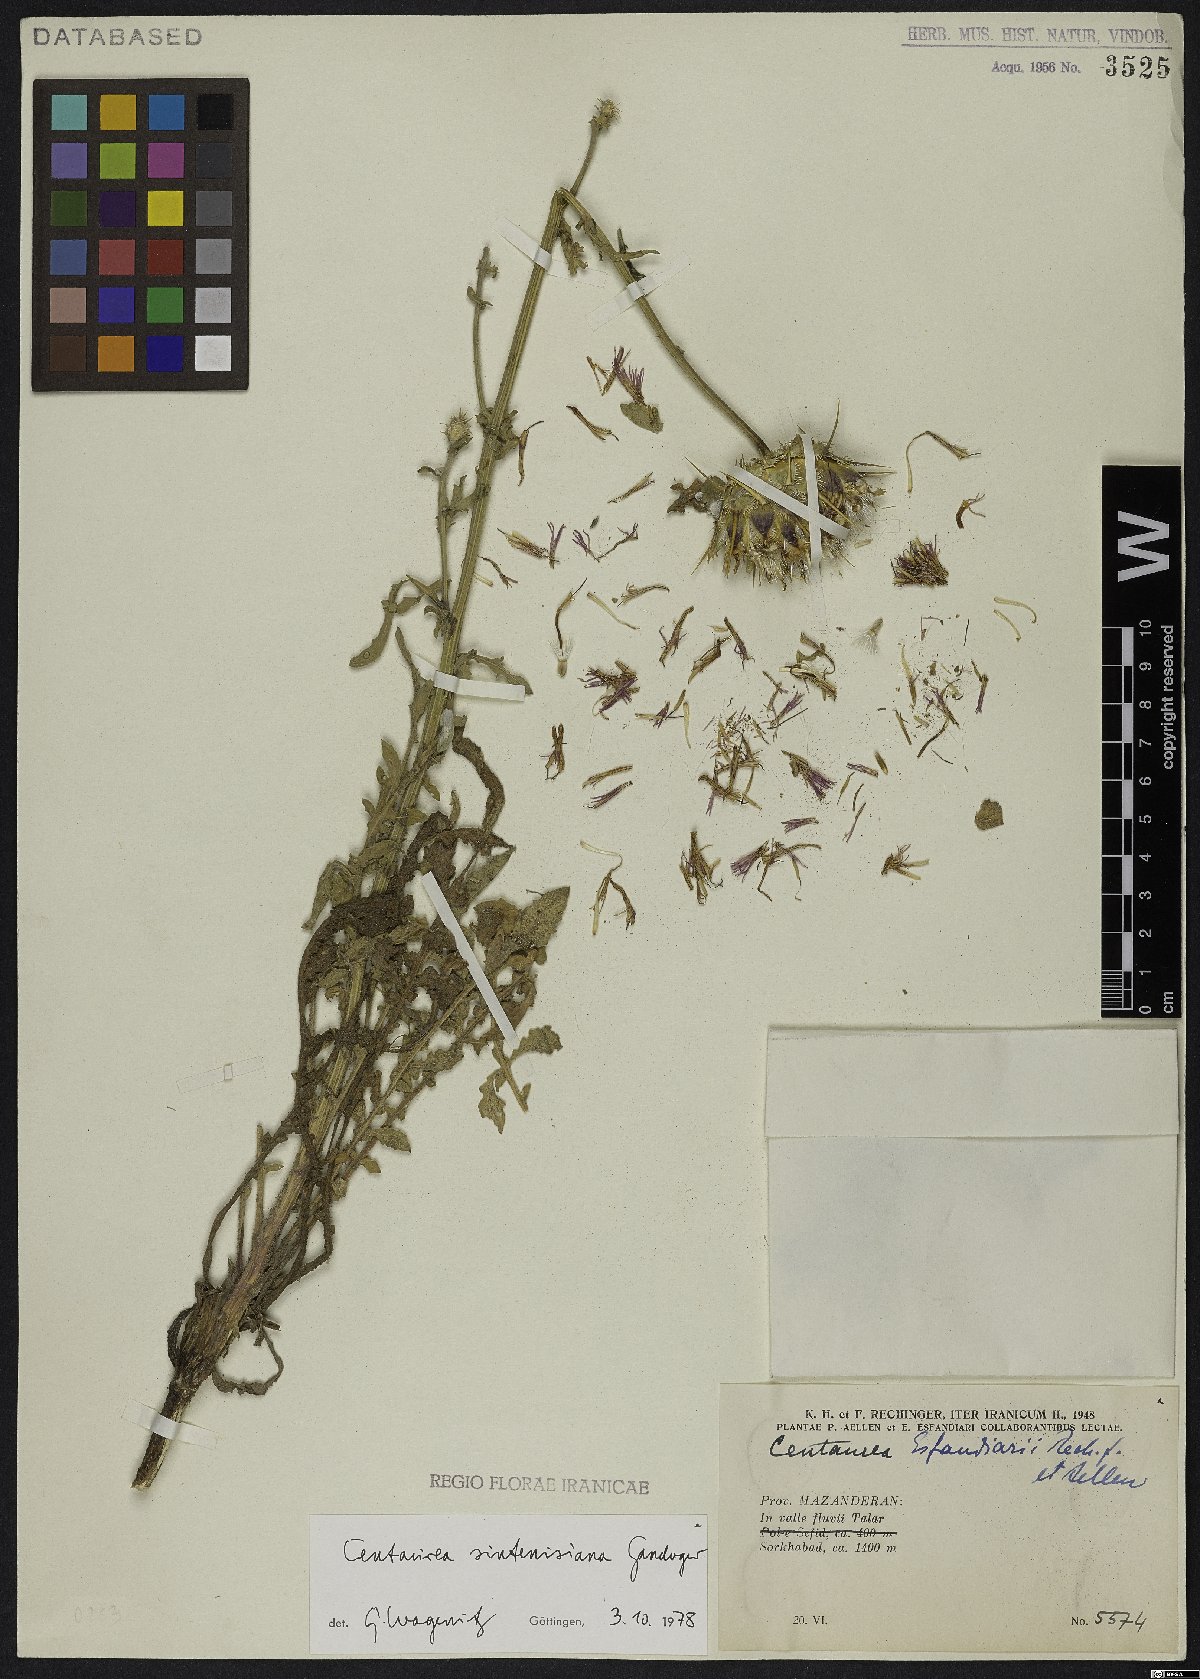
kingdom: Plantae
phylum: Tracheophyta
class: Magnoliopsida
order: Asterales
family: Asteraceae
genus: Psephellus
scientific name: Psephellus sintenisii
